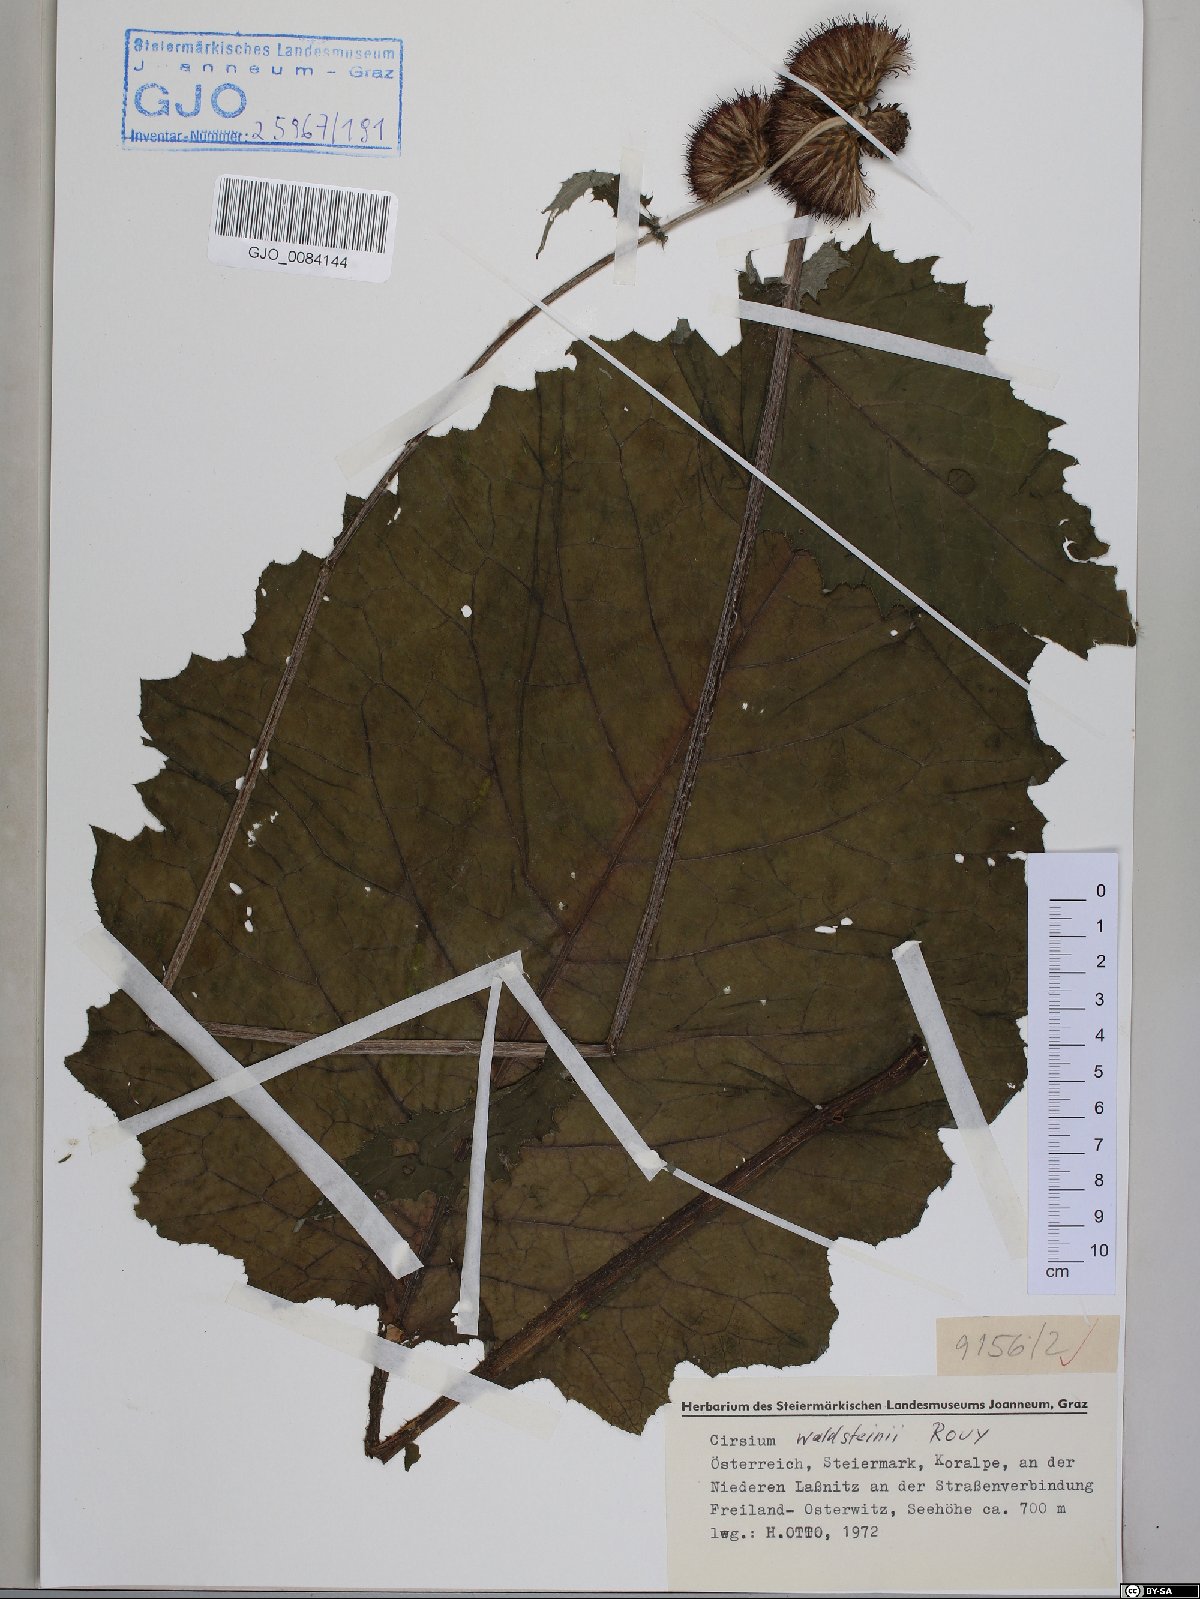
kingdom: Plantae
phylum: Tracheophyta
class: Magnoliopsida
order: Asterales
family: Asteraceae
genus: Cirsium
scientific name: Cirsium greimleri
